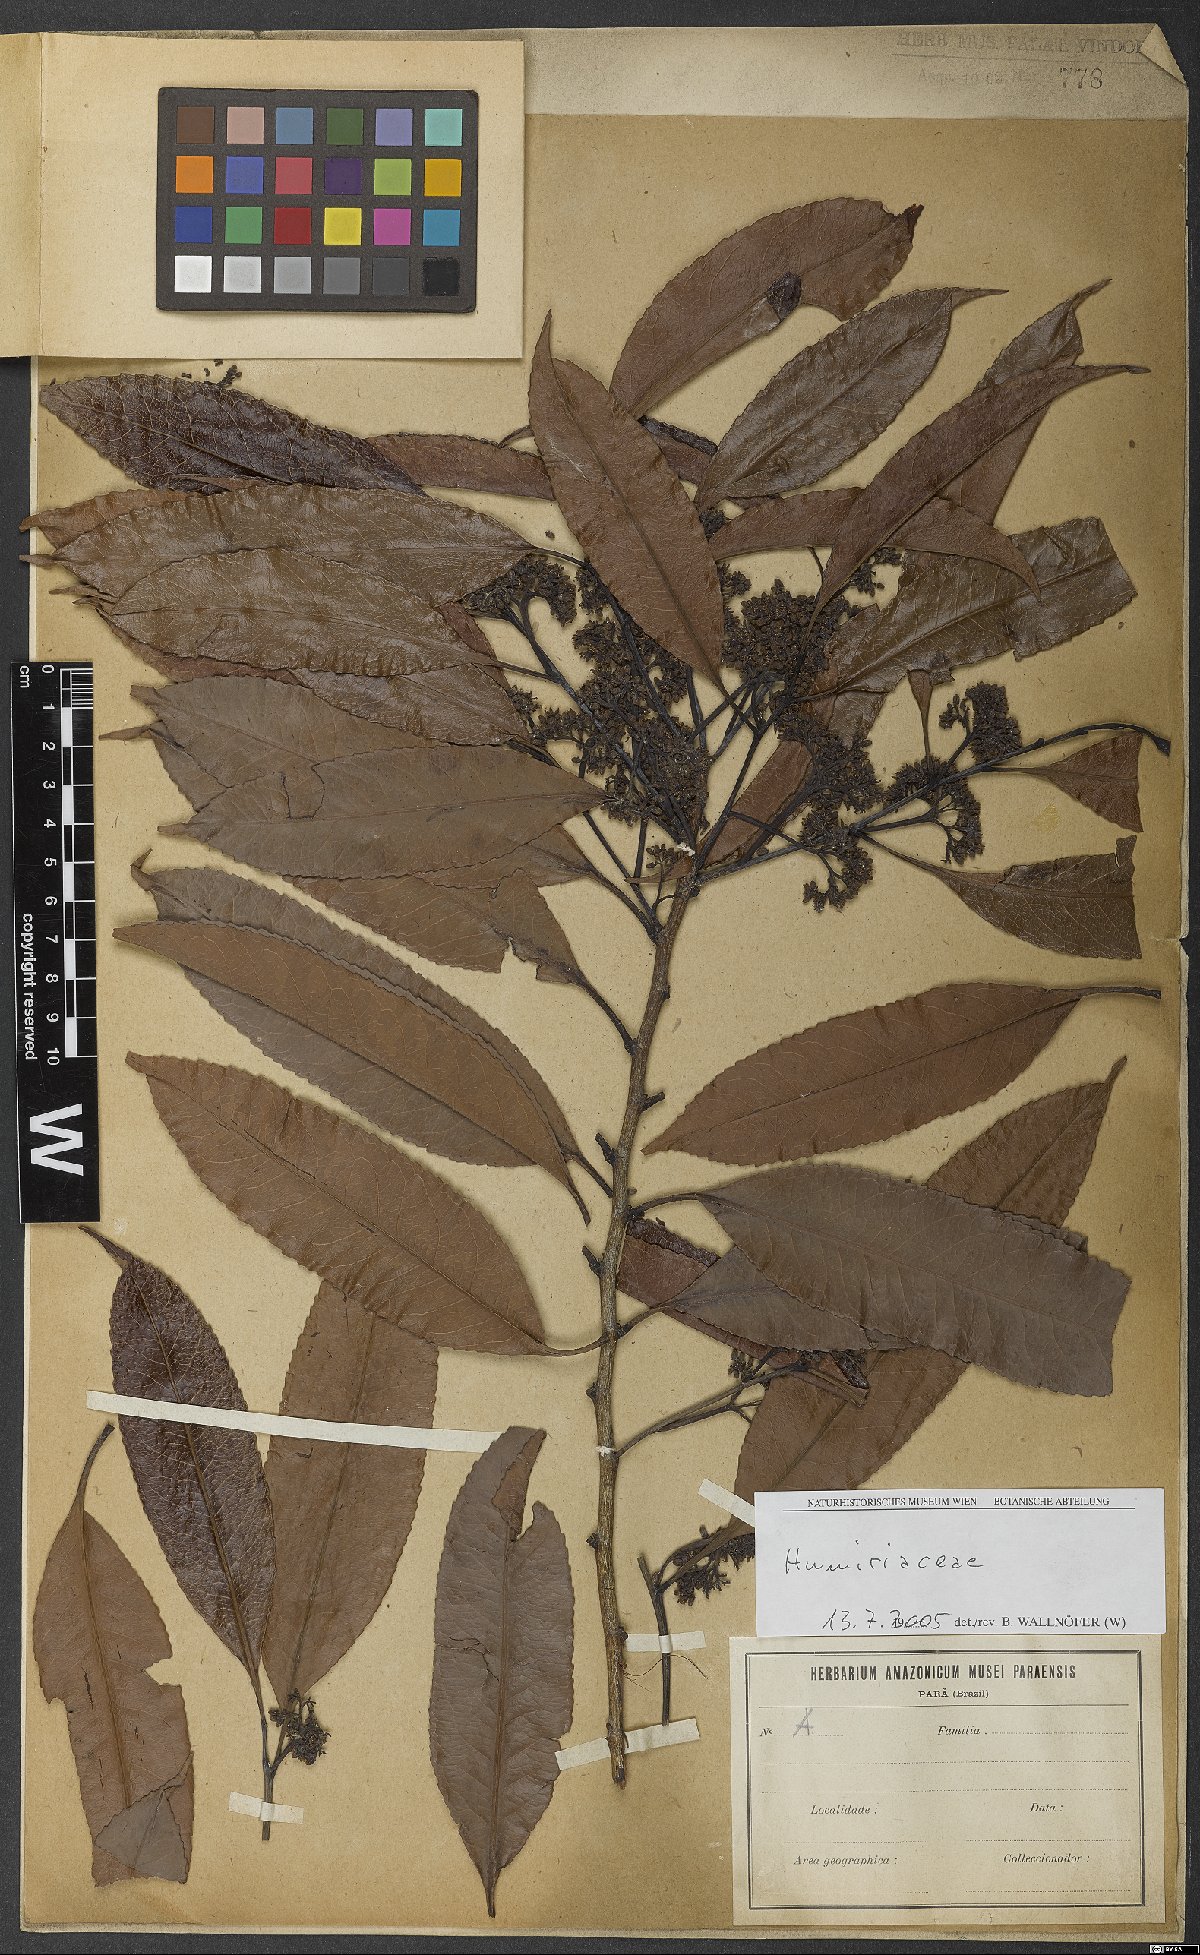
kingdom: Plantae
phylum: Tracheophyta
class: Magnoliopsida
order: Malpighiales
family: Humiriaceae
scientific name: Humiriaceae
